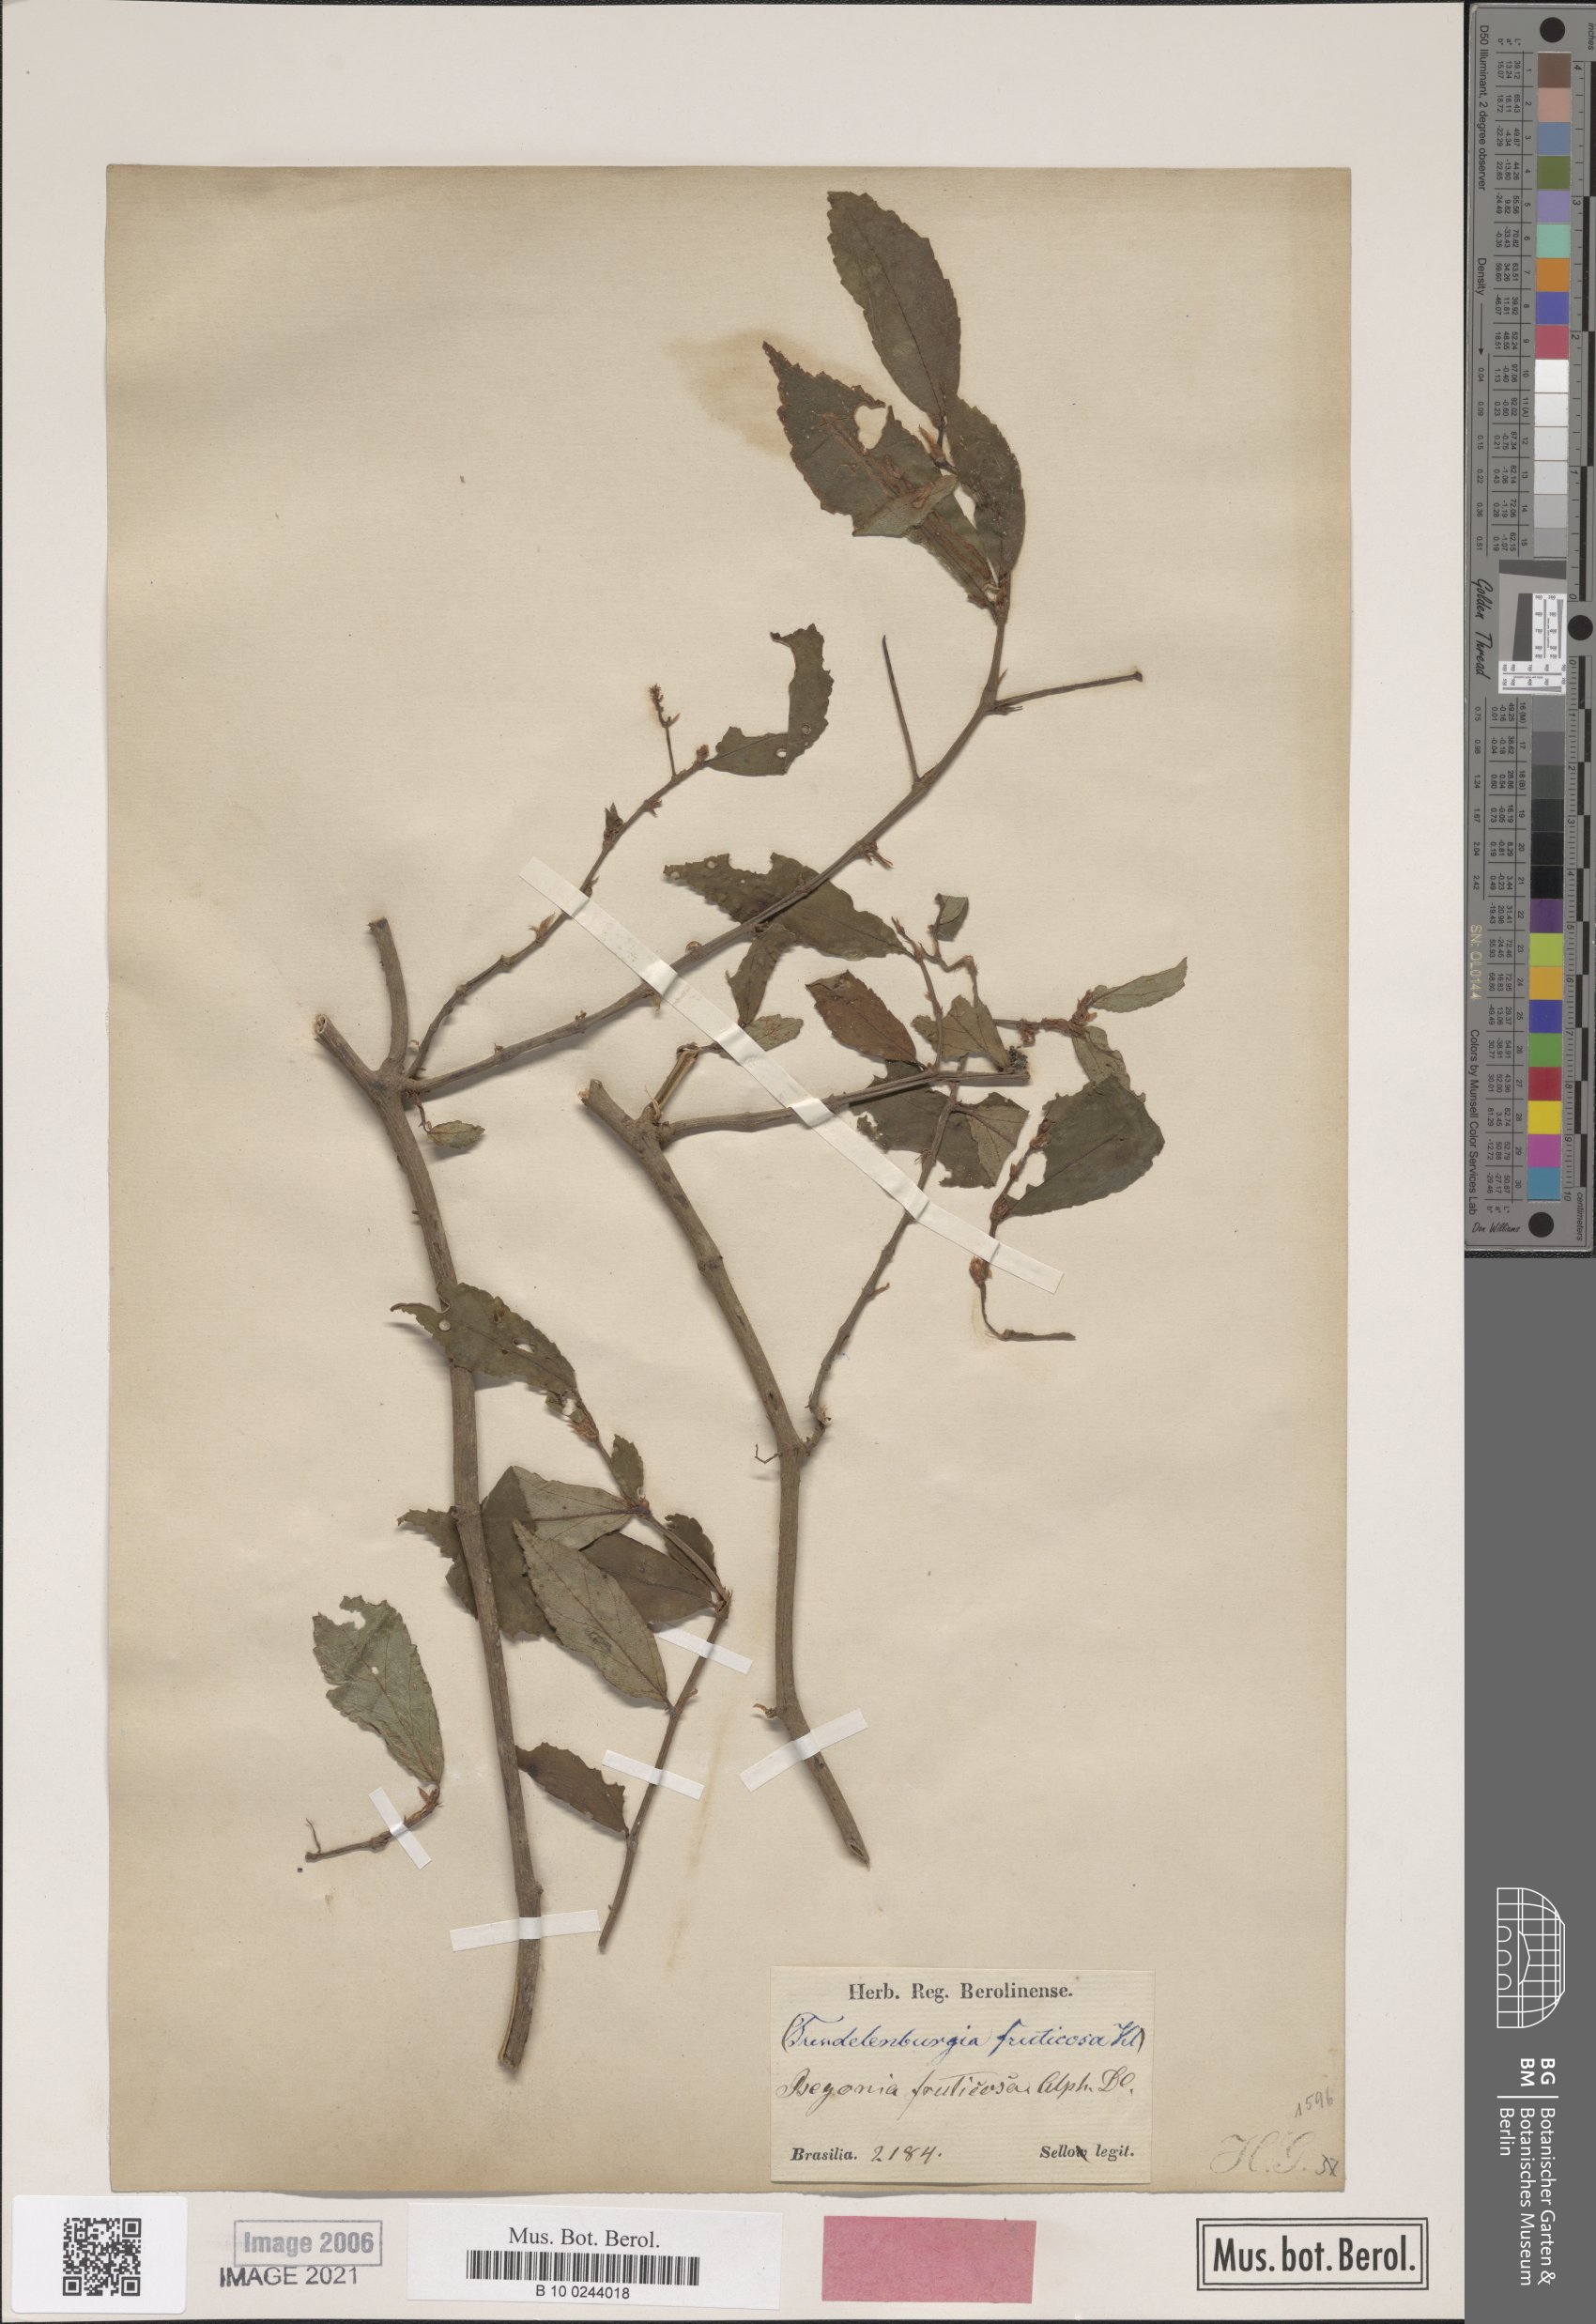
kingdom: Plantae
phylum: Tracheophyta
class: Magnoliopsida
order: Cucurbitales
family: Begoniaceae
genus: Begonia
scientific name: Begonia fruticosa
